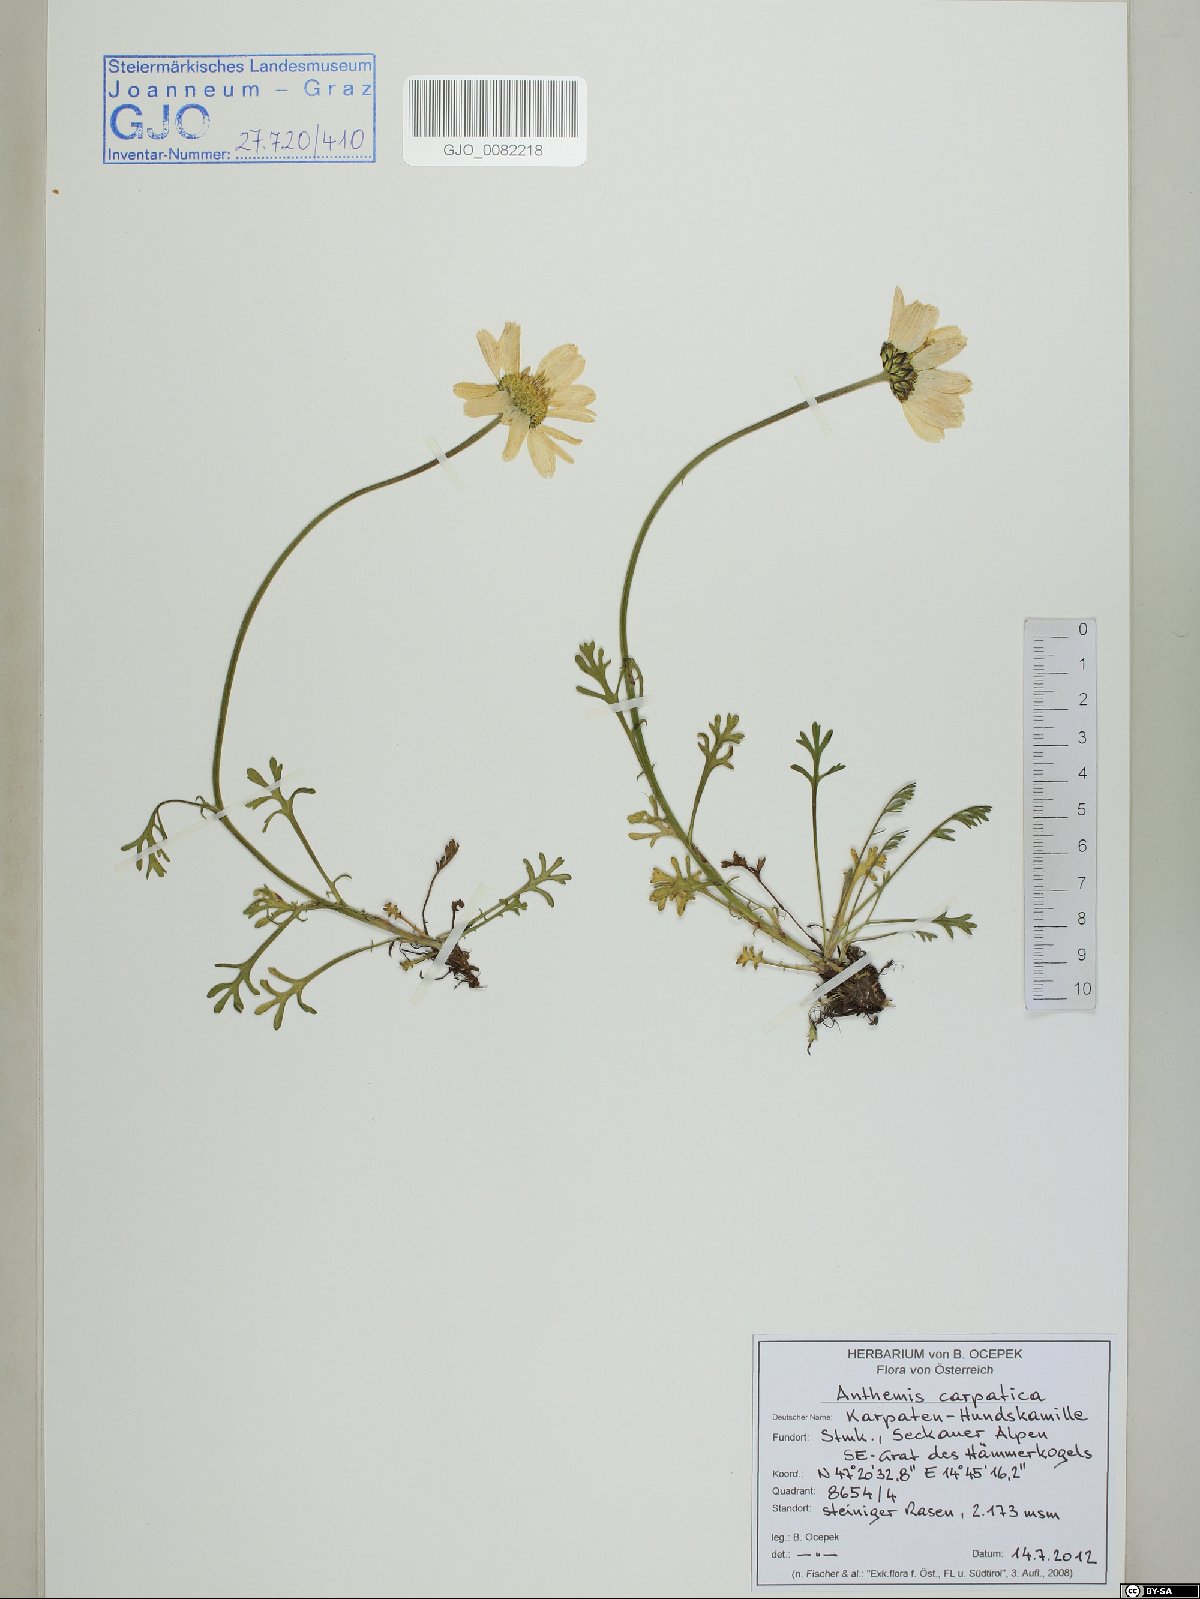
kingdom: Plantae
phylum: Tracheophyta
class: Magnoliopsida
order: Asterales
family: Asteraceae
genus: Anthemis
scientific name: Anthemis cretica
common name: Mountain dog-daisy
